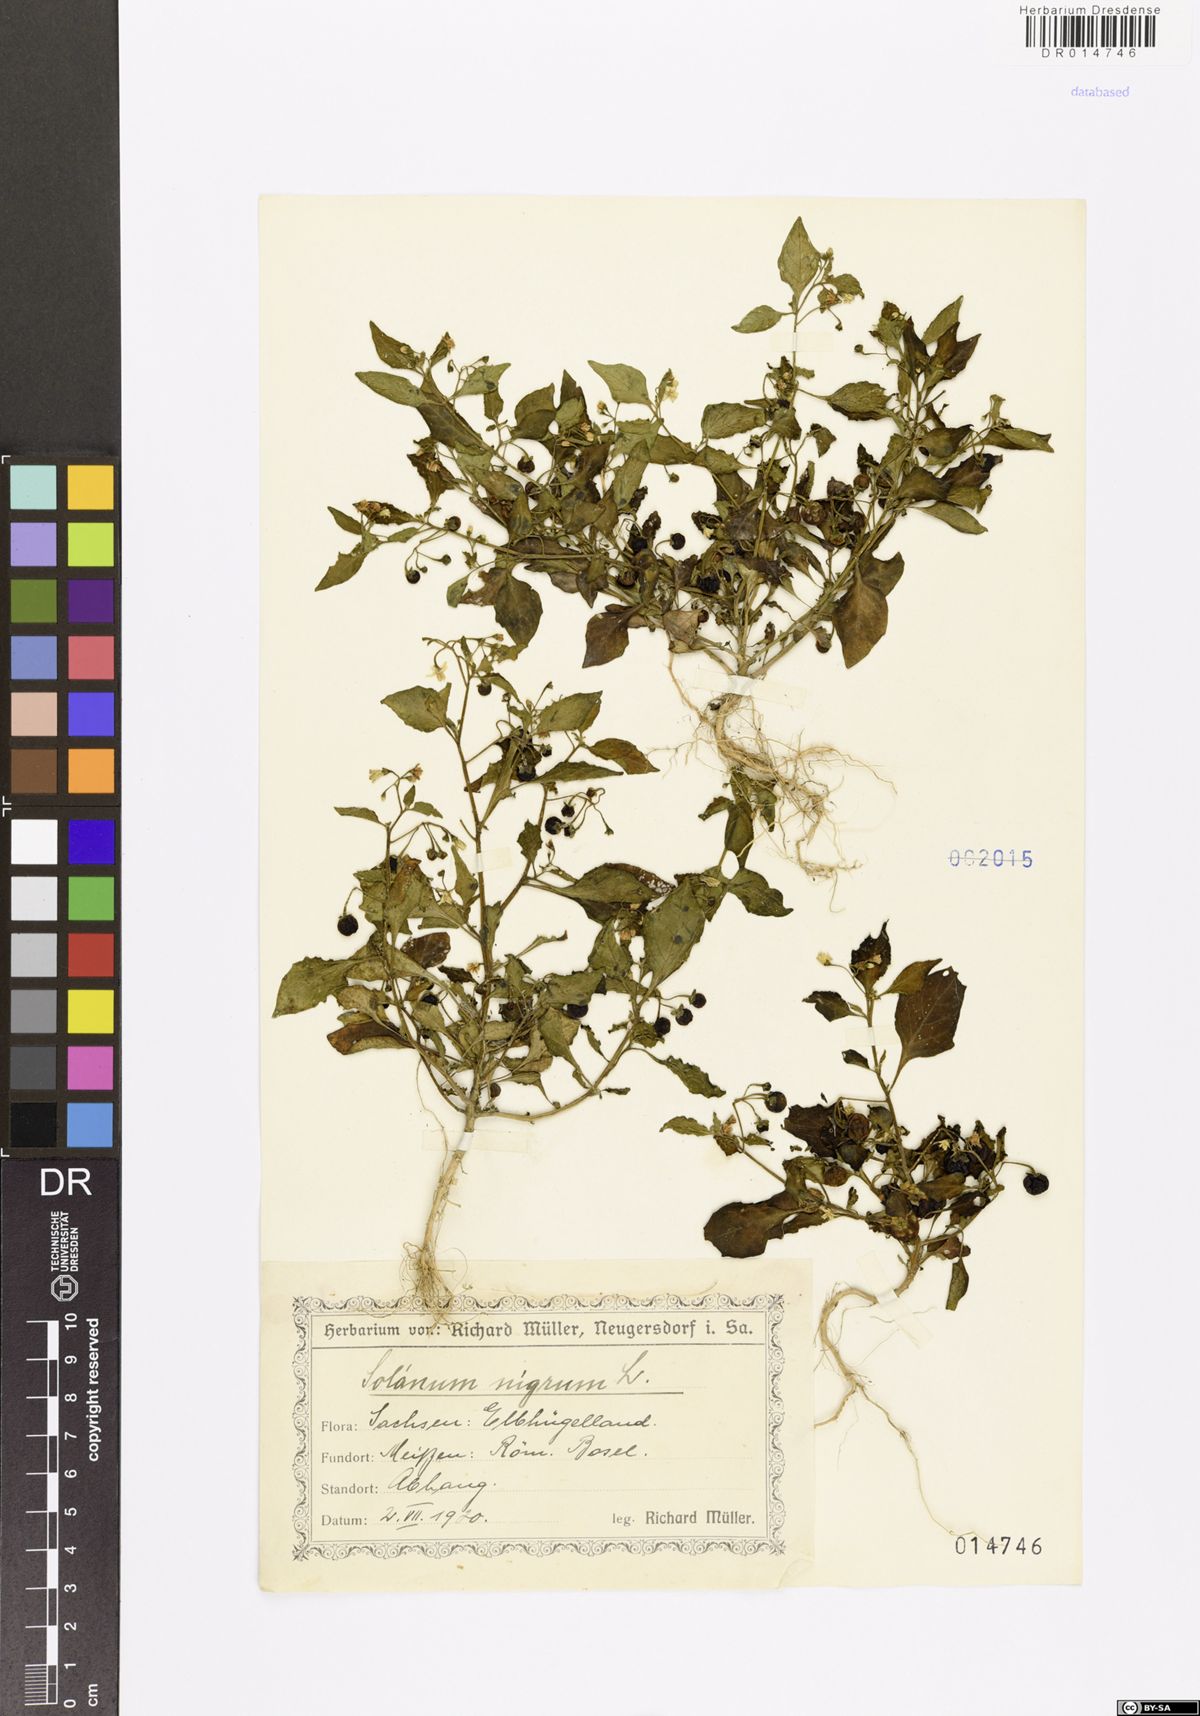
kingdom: Plantae
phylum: Tracheophyta
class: Magnoliopsida
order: Solanales
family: Solanaceae
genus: Solanum
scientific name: Solanum nigrum
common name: Black nightshade
